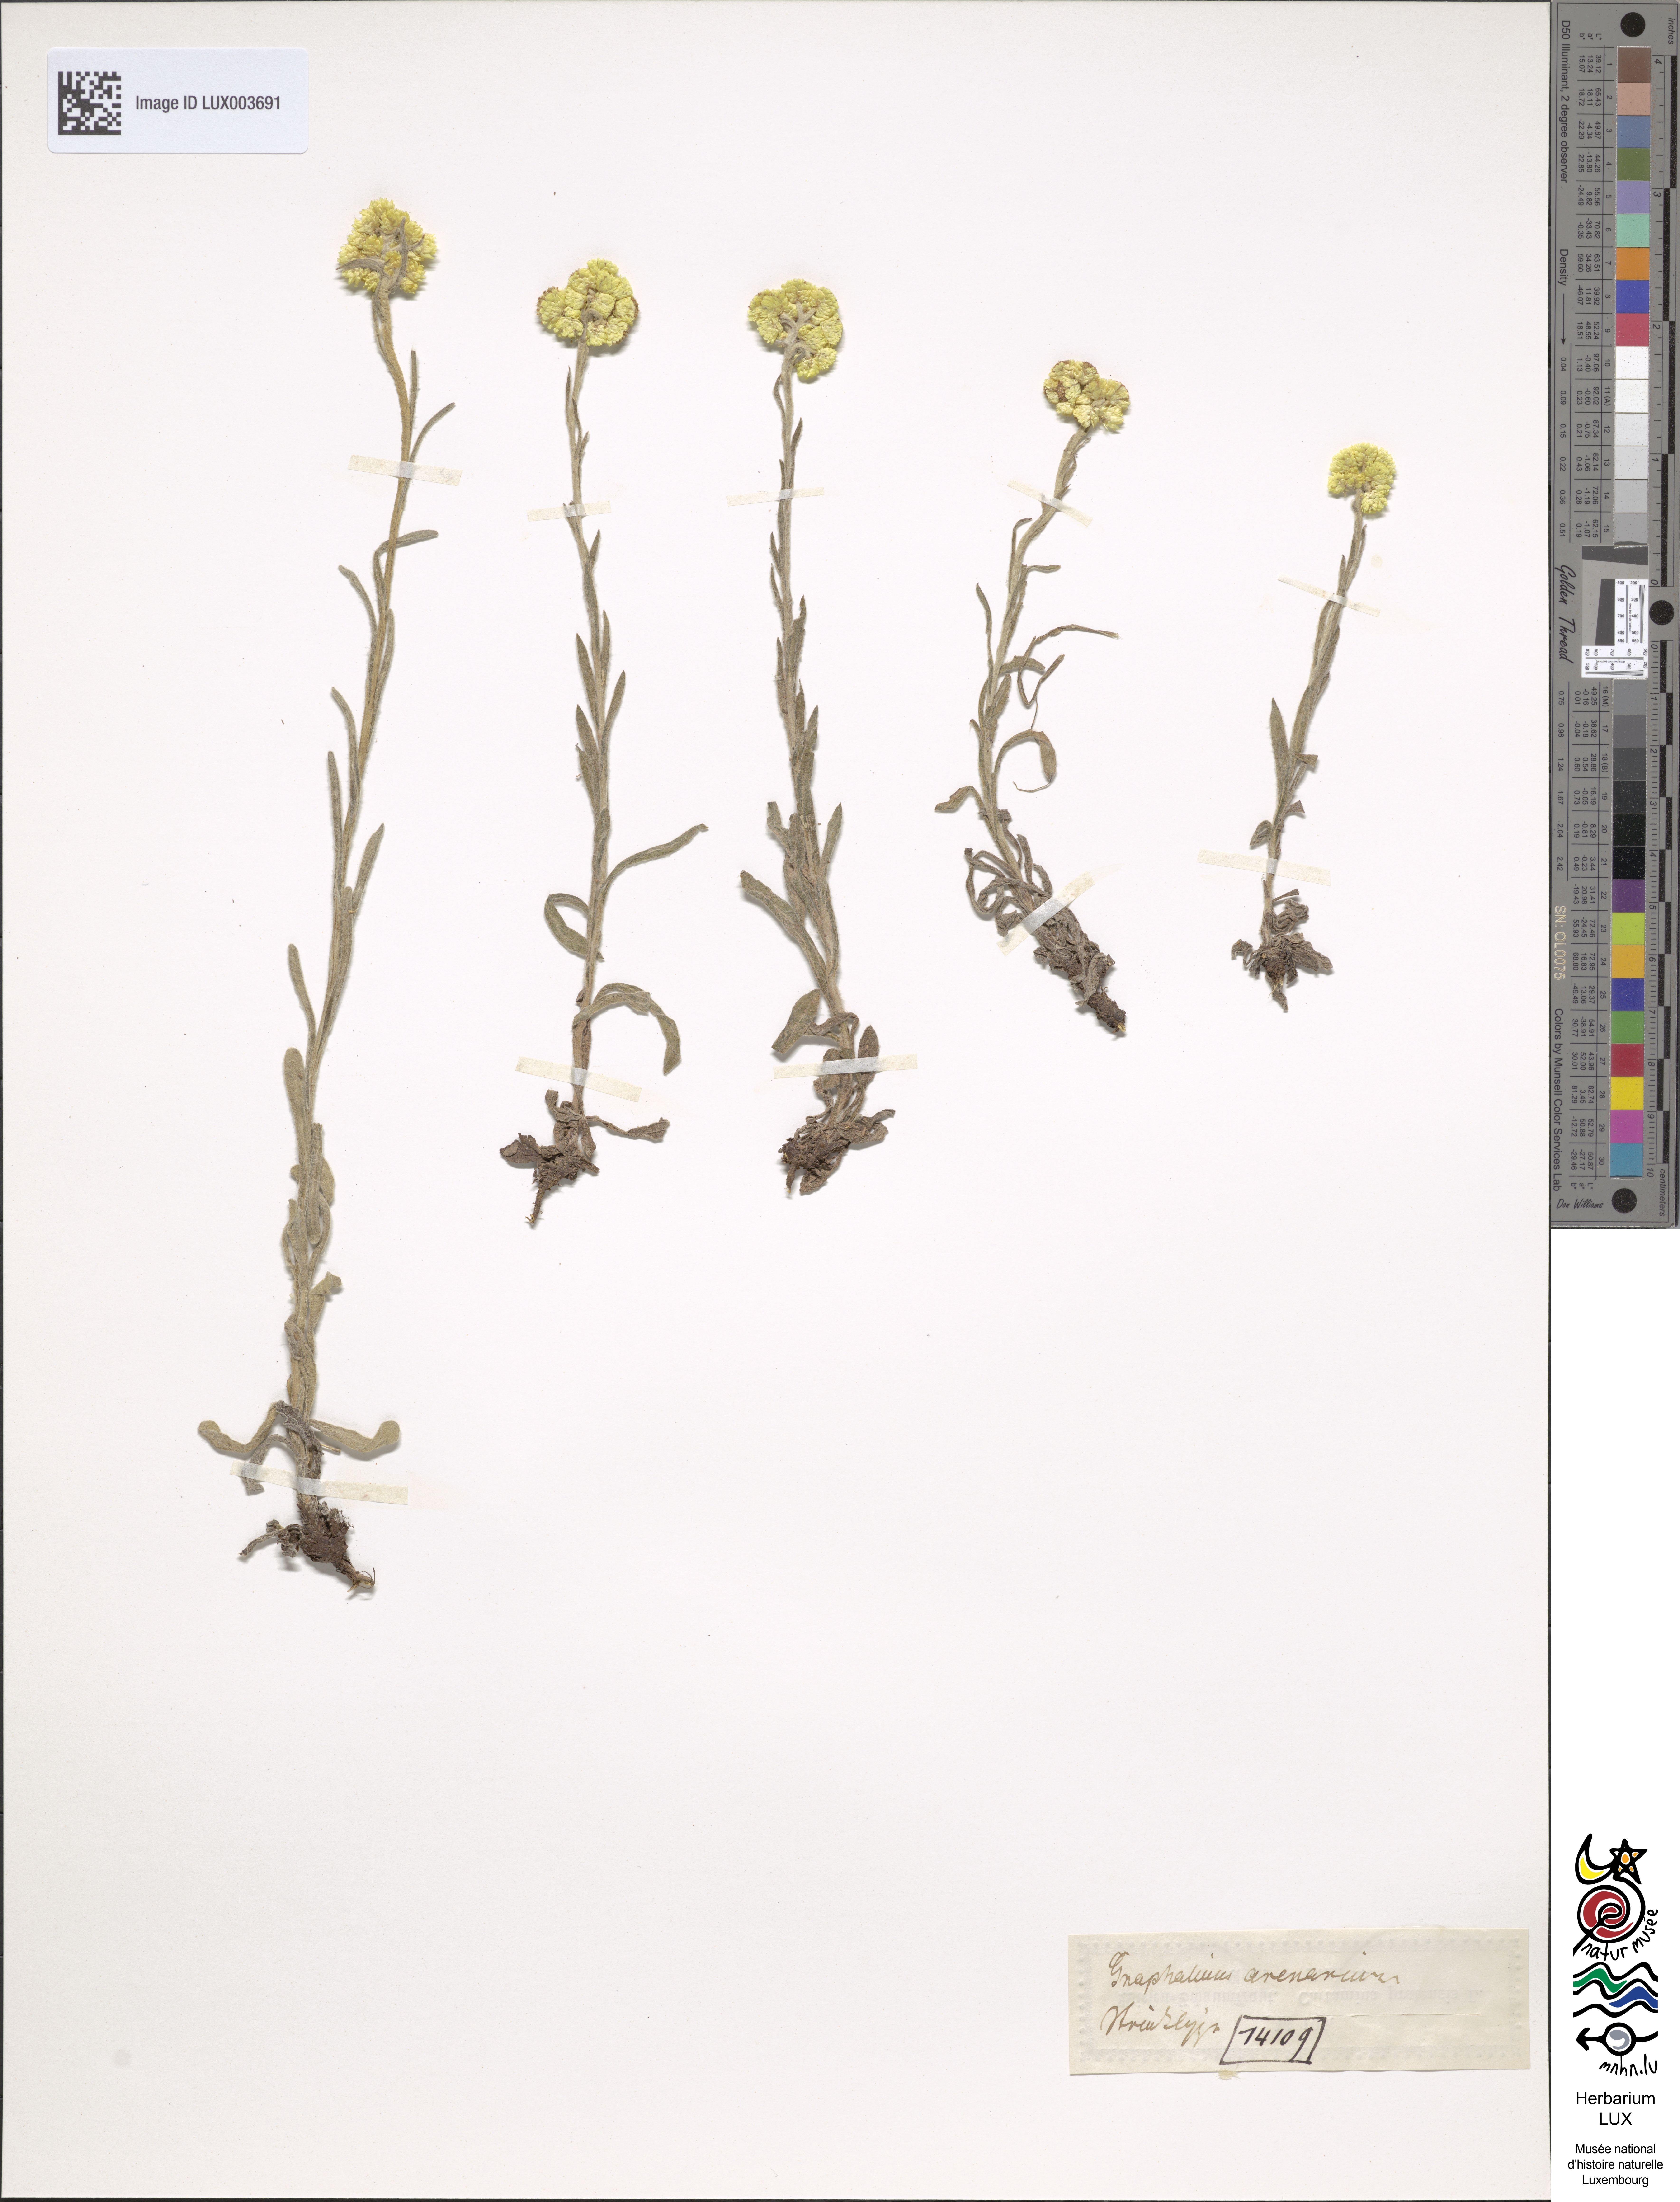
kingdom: Plantae
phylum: Tracheophyta
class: Magnoliopsida
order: Asterales
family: Asteraceae
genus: Helichrysum
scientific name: Helichrysum arenarium
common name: Strawflower
